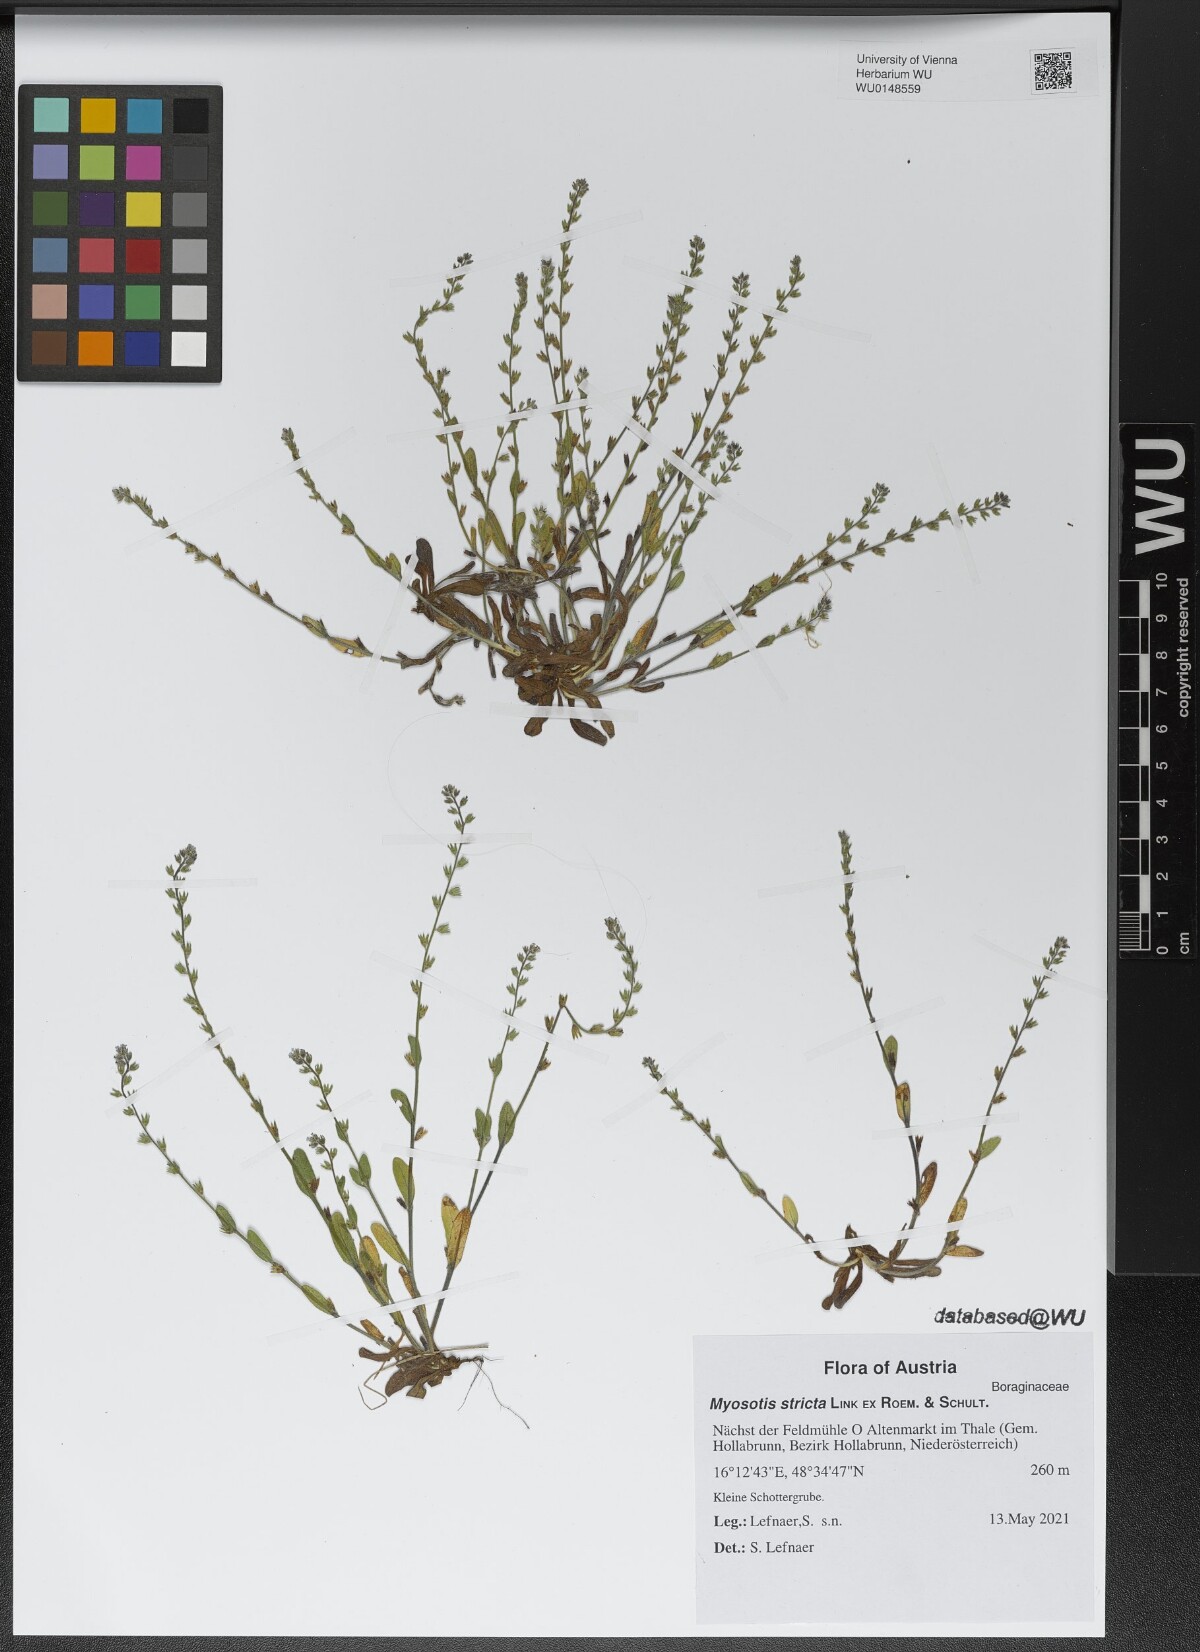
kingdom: Plantae
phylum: Tracheophyta
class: Magnoliopsida
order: Boraginales
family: Boraginaceae
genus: Myosotis
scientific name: Myosotis stricta
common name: Strict forget-me-not
